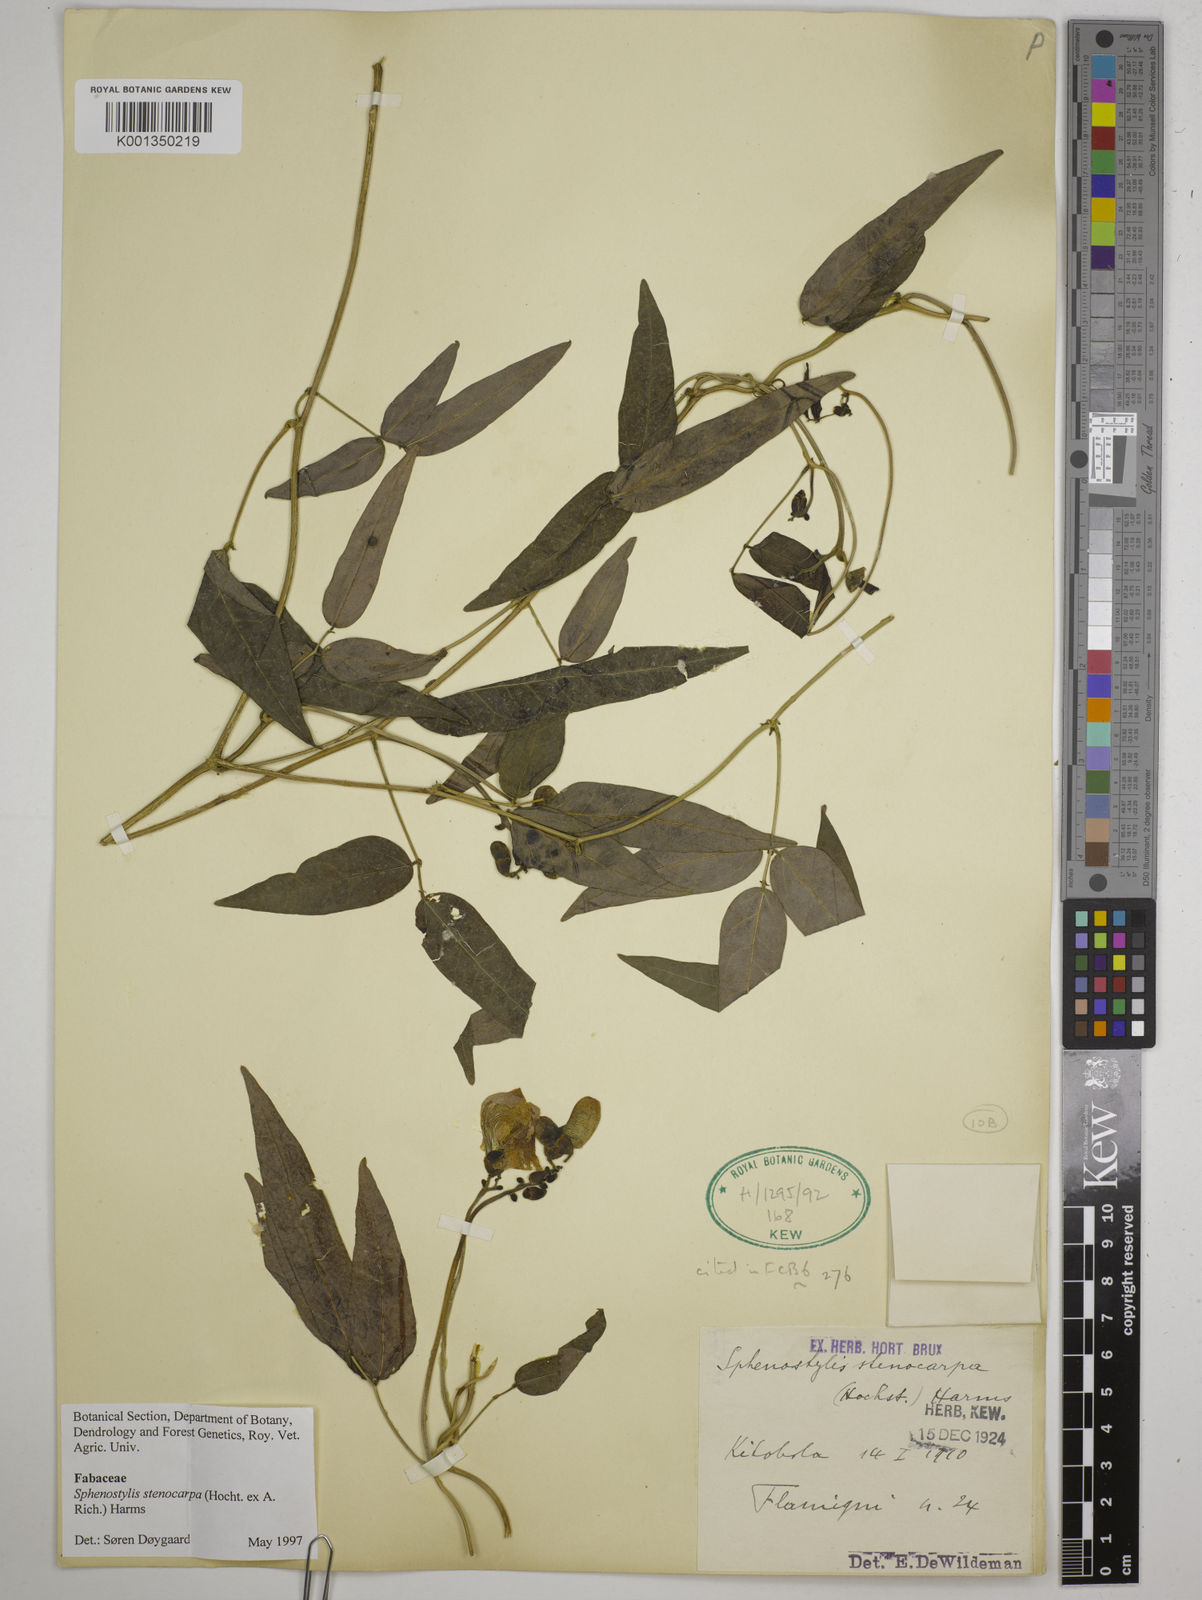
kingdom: Plantae
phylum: Tracheophyta
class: Magnoliopsida
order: Fabales
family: Fabaceae
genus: Sphenostylis
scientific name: Sphenostylis stenocarpa
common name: Yam-pea
